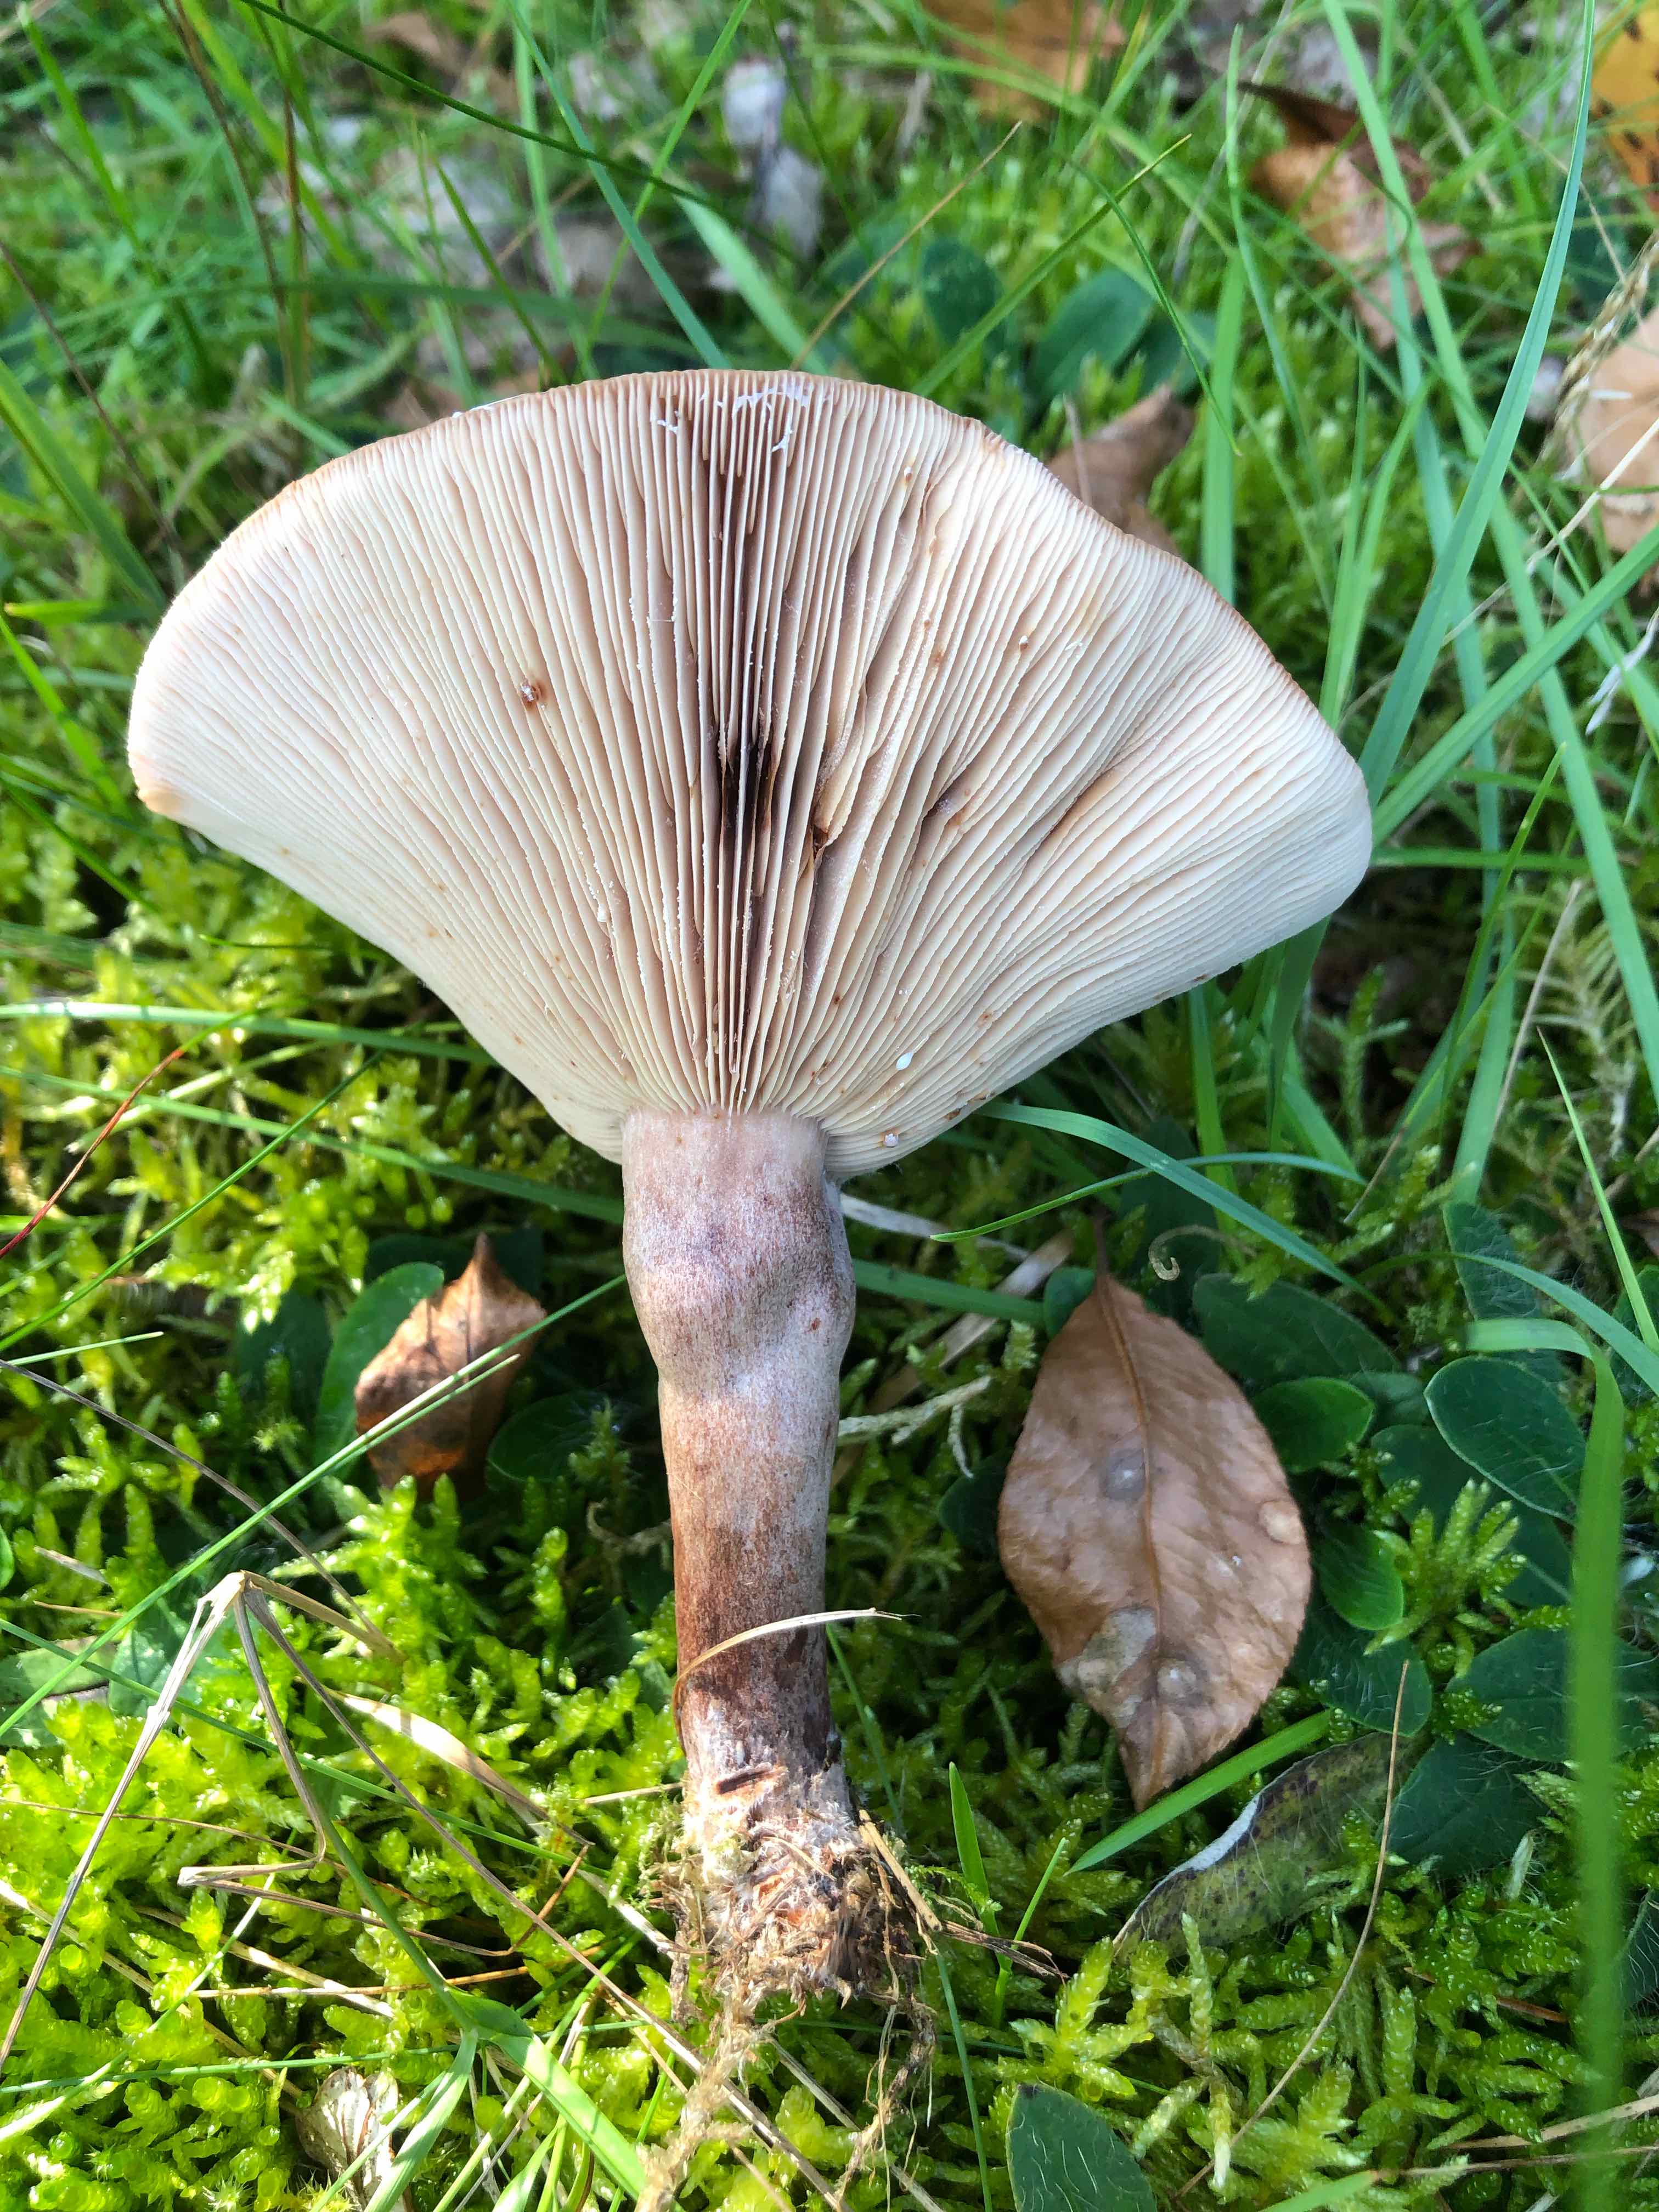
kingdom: Fungi
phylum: Basidiomycota
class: Agaricomycetes
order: Russulales
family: Russulaceae
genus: Lactarius
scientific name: Lactarius quietus
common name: ege-mælkehat
